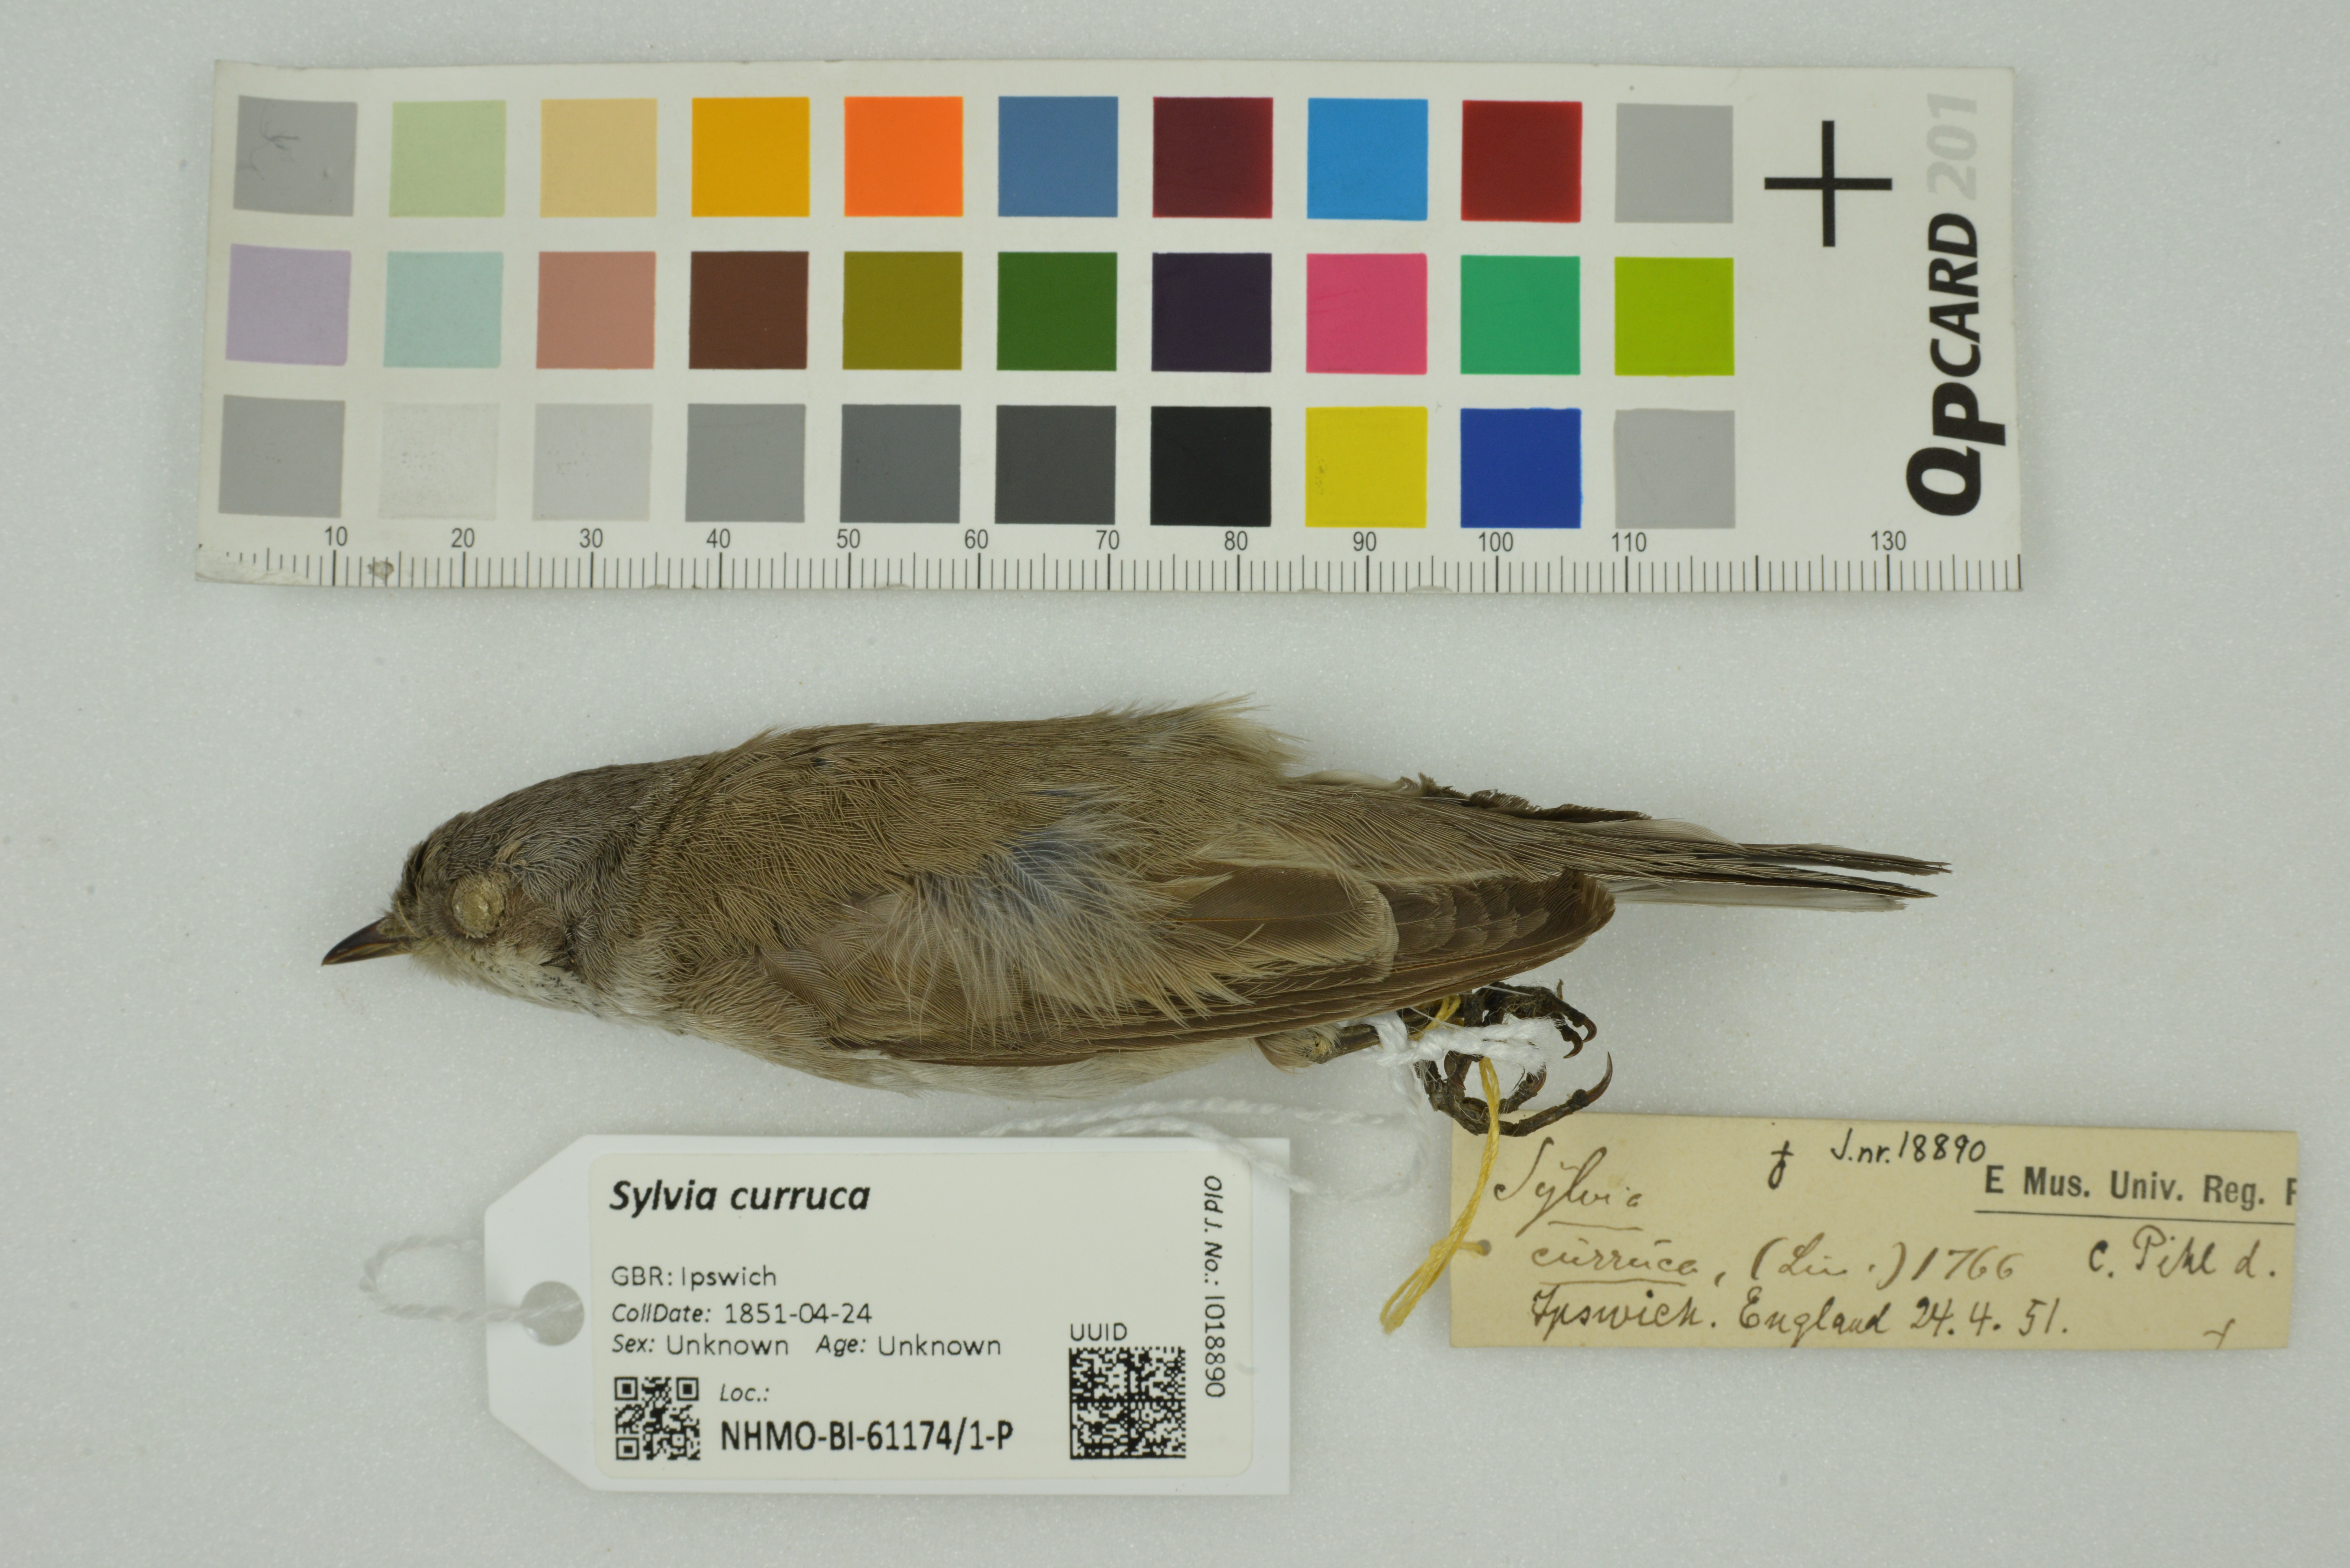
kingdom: Animalia
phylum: Chordata
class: Aves
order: Passeriformes
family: Sylviidae
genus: Sylvia
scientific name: Sylvia curruca
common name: Lesser whitethroat
